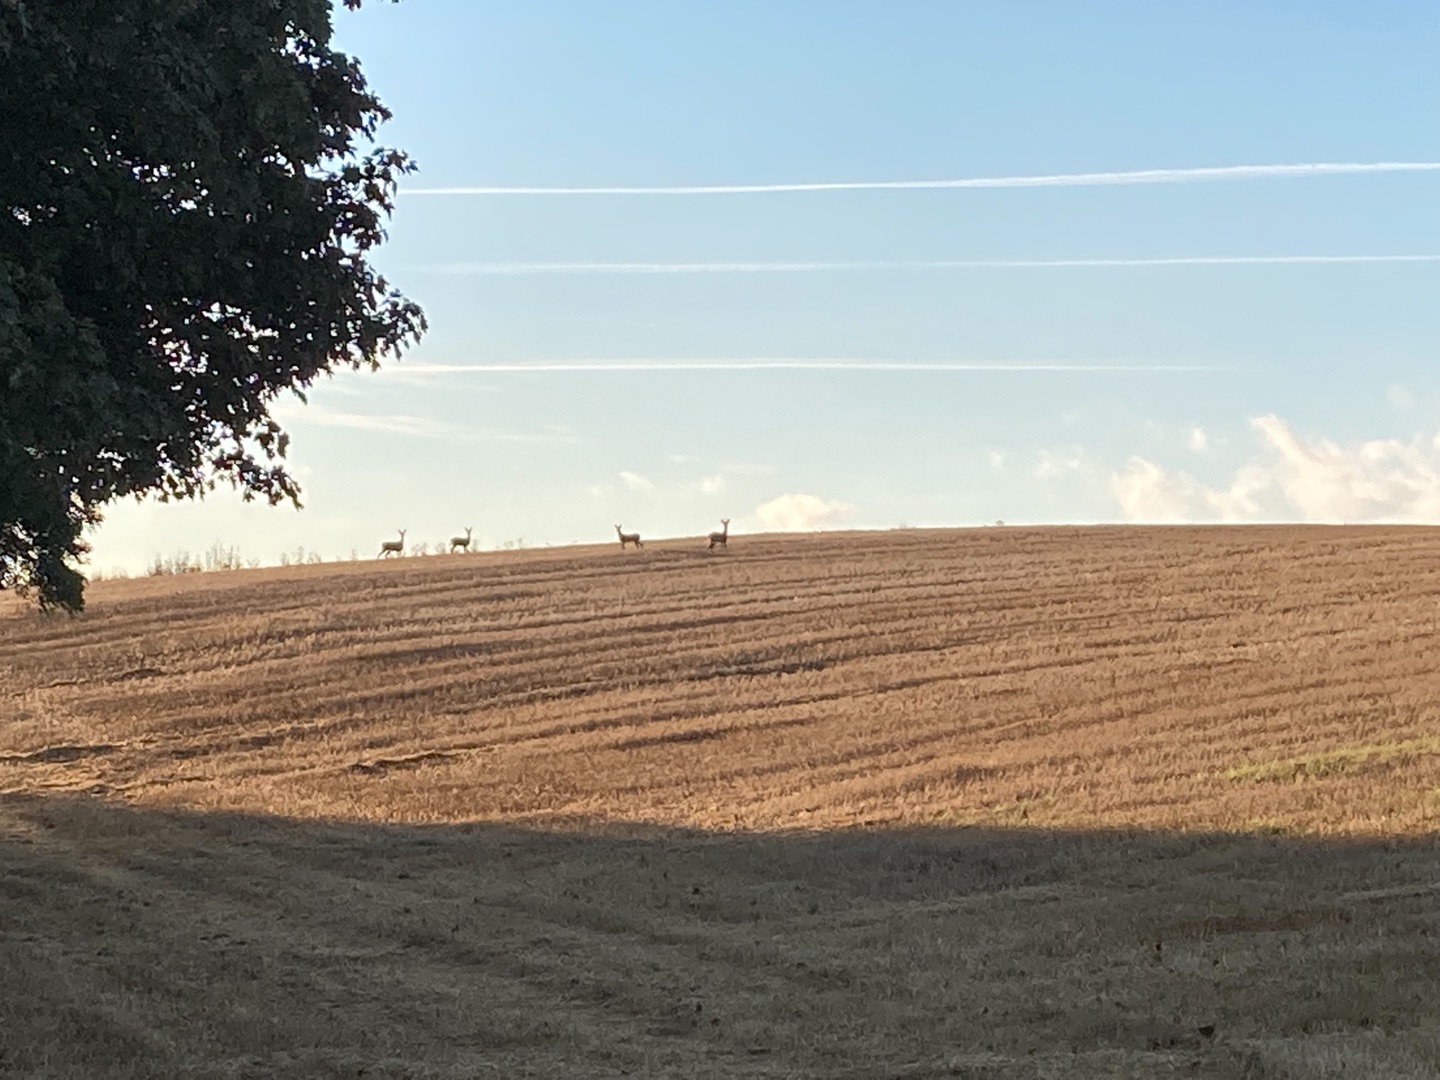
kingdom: Animalia
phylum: Chordata
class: Mammalia
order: Artiodactyla
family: Cervidae
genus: Capreolus
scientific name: Capreolus capreolus
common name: Rådyr
